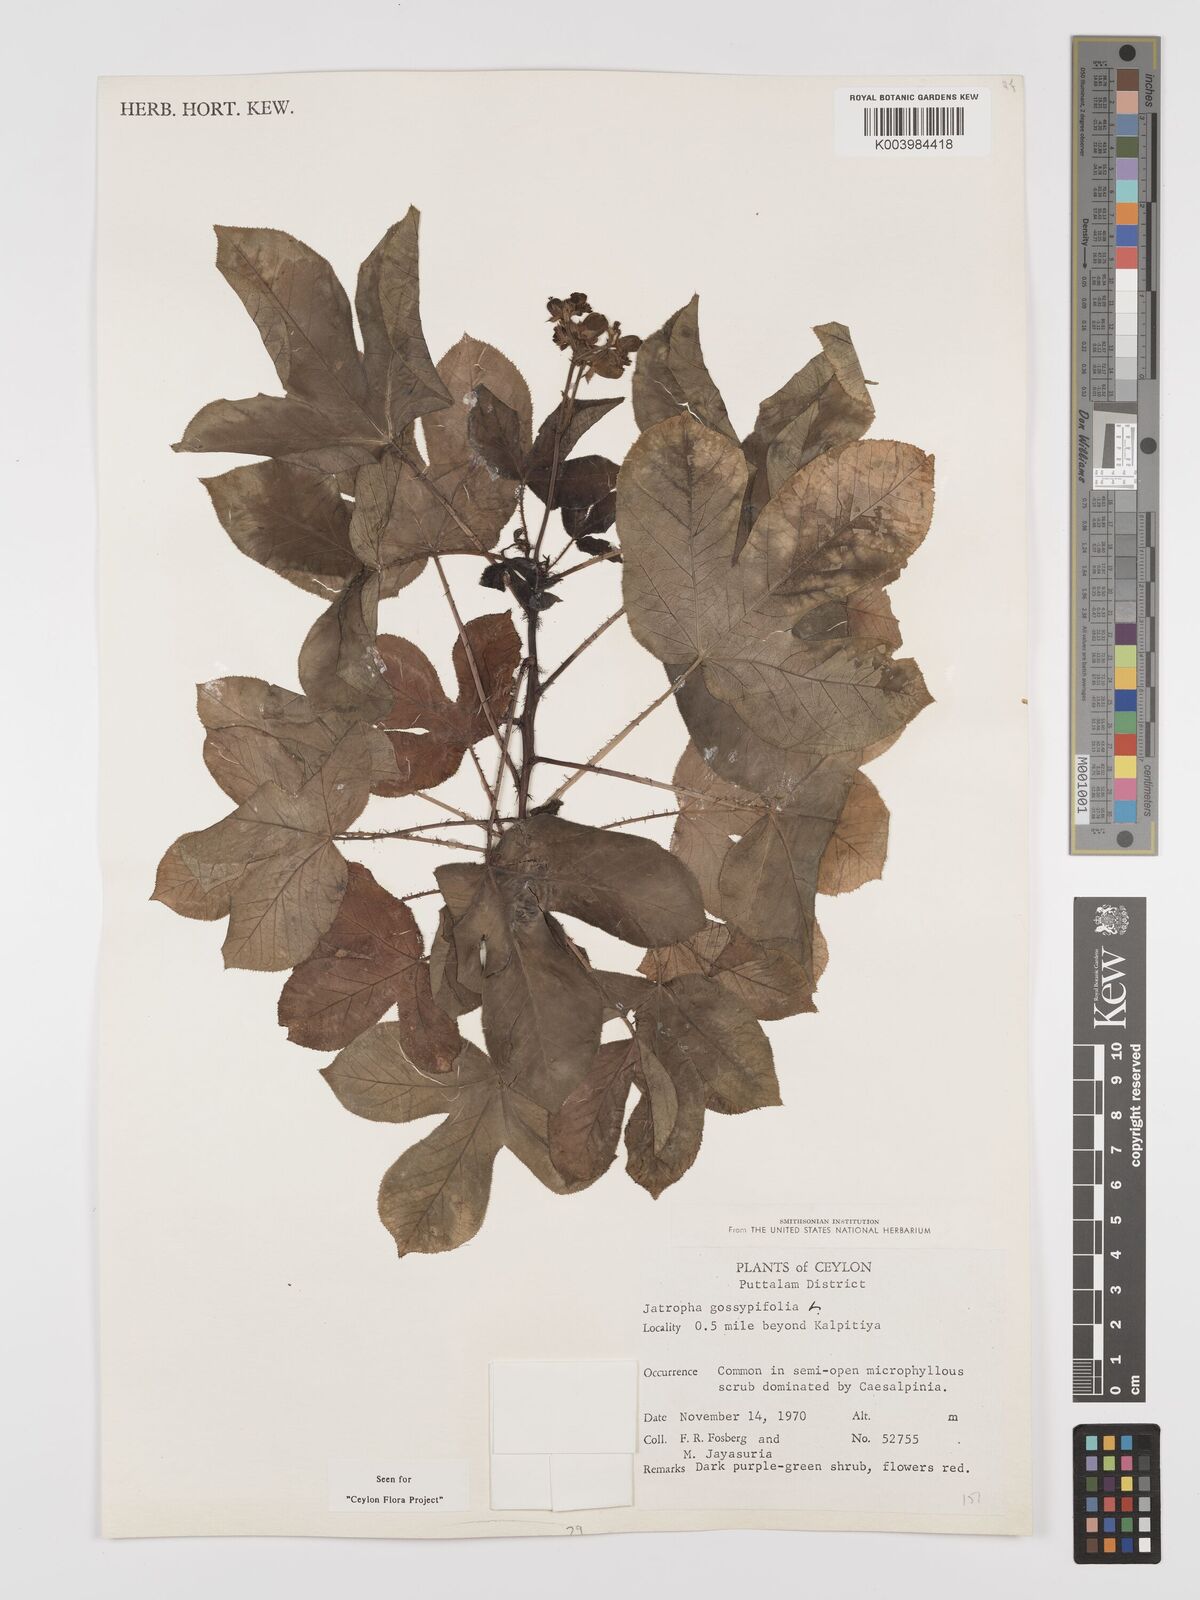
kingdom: Plantae
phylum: Tracheophyta
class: Magnoliopsida
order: Malpighiales
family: Euphorbiaceae
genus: Jatropha
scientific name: Jatropha gossypiifolia
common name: Bellyache bush
